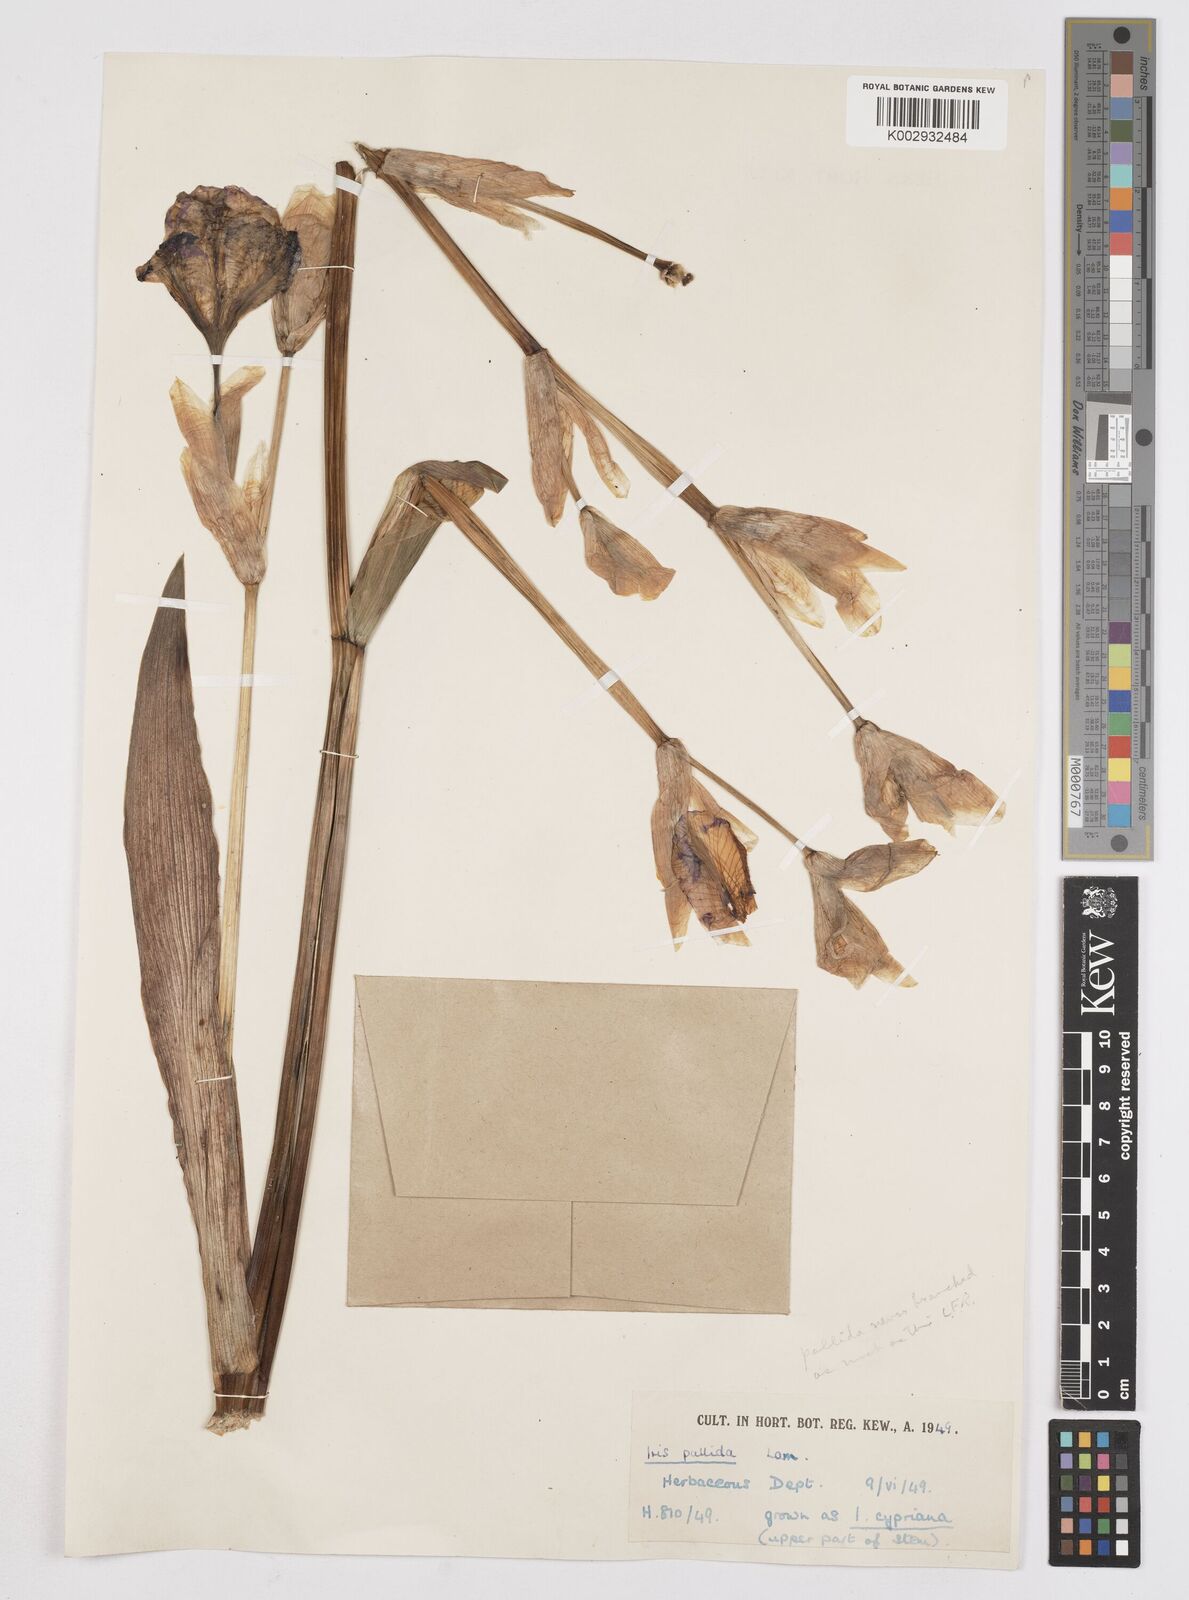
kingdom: Plantae
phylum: Tracheophyta
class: Liliopsida
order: Asparagales
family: Iridaceae
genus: Iris
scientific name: Iris
